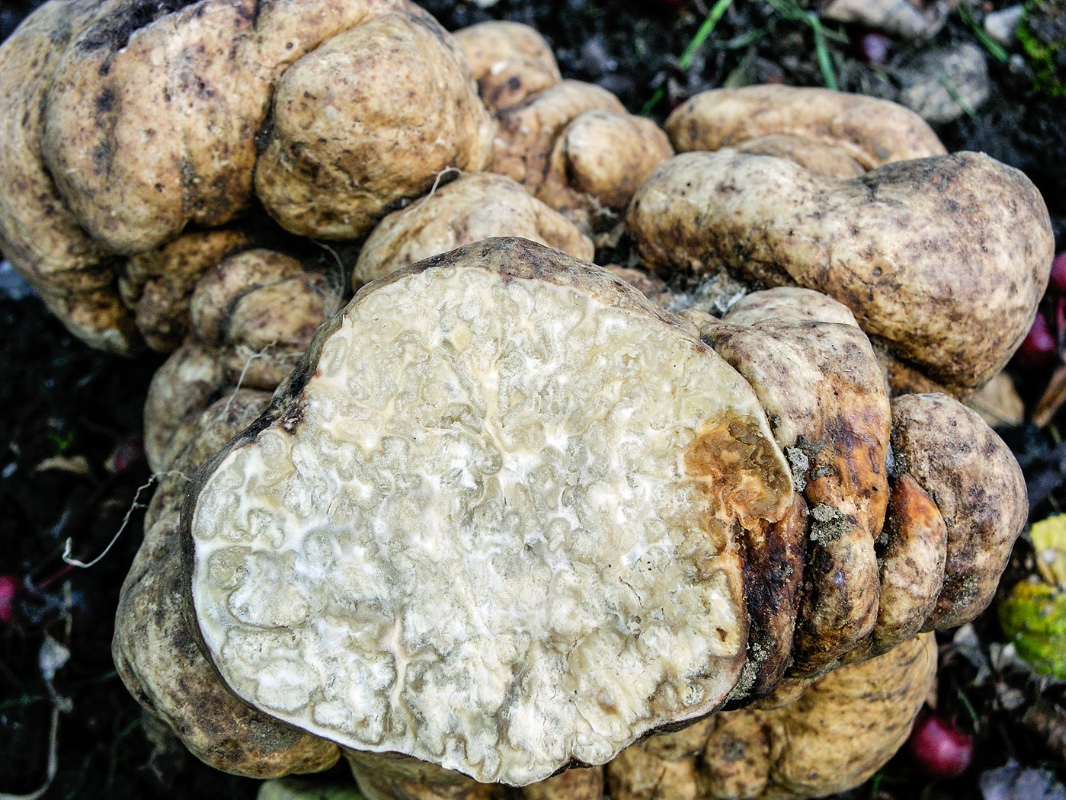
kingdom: Fungi
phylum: Ascomycota
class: Pezizomycetes
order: Pezizales
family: Tuberaceae
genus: Choiromyces
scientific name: Choiromyces venosus
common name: kartoffeltrøffel
